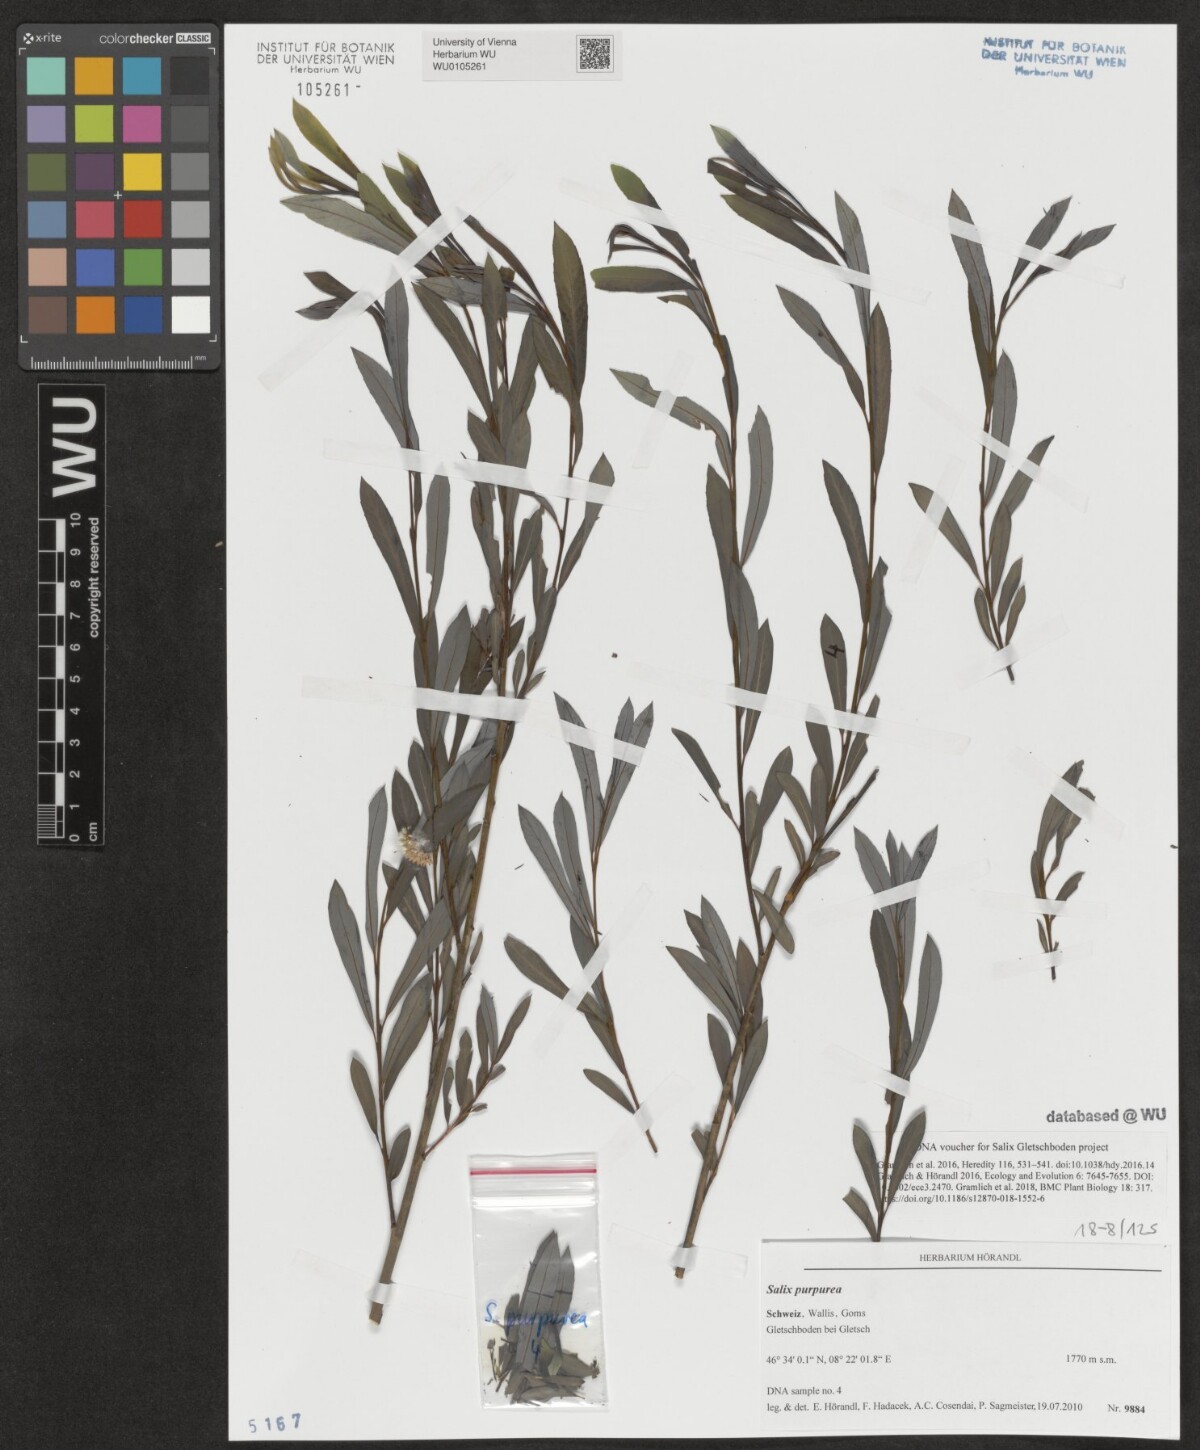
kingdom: Plantae
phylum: Tracheophyta
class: Magnoliopsida
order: Malpighiales
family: Salicaceae
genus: Salix
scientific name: Salix purpurea
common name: Purple willow
